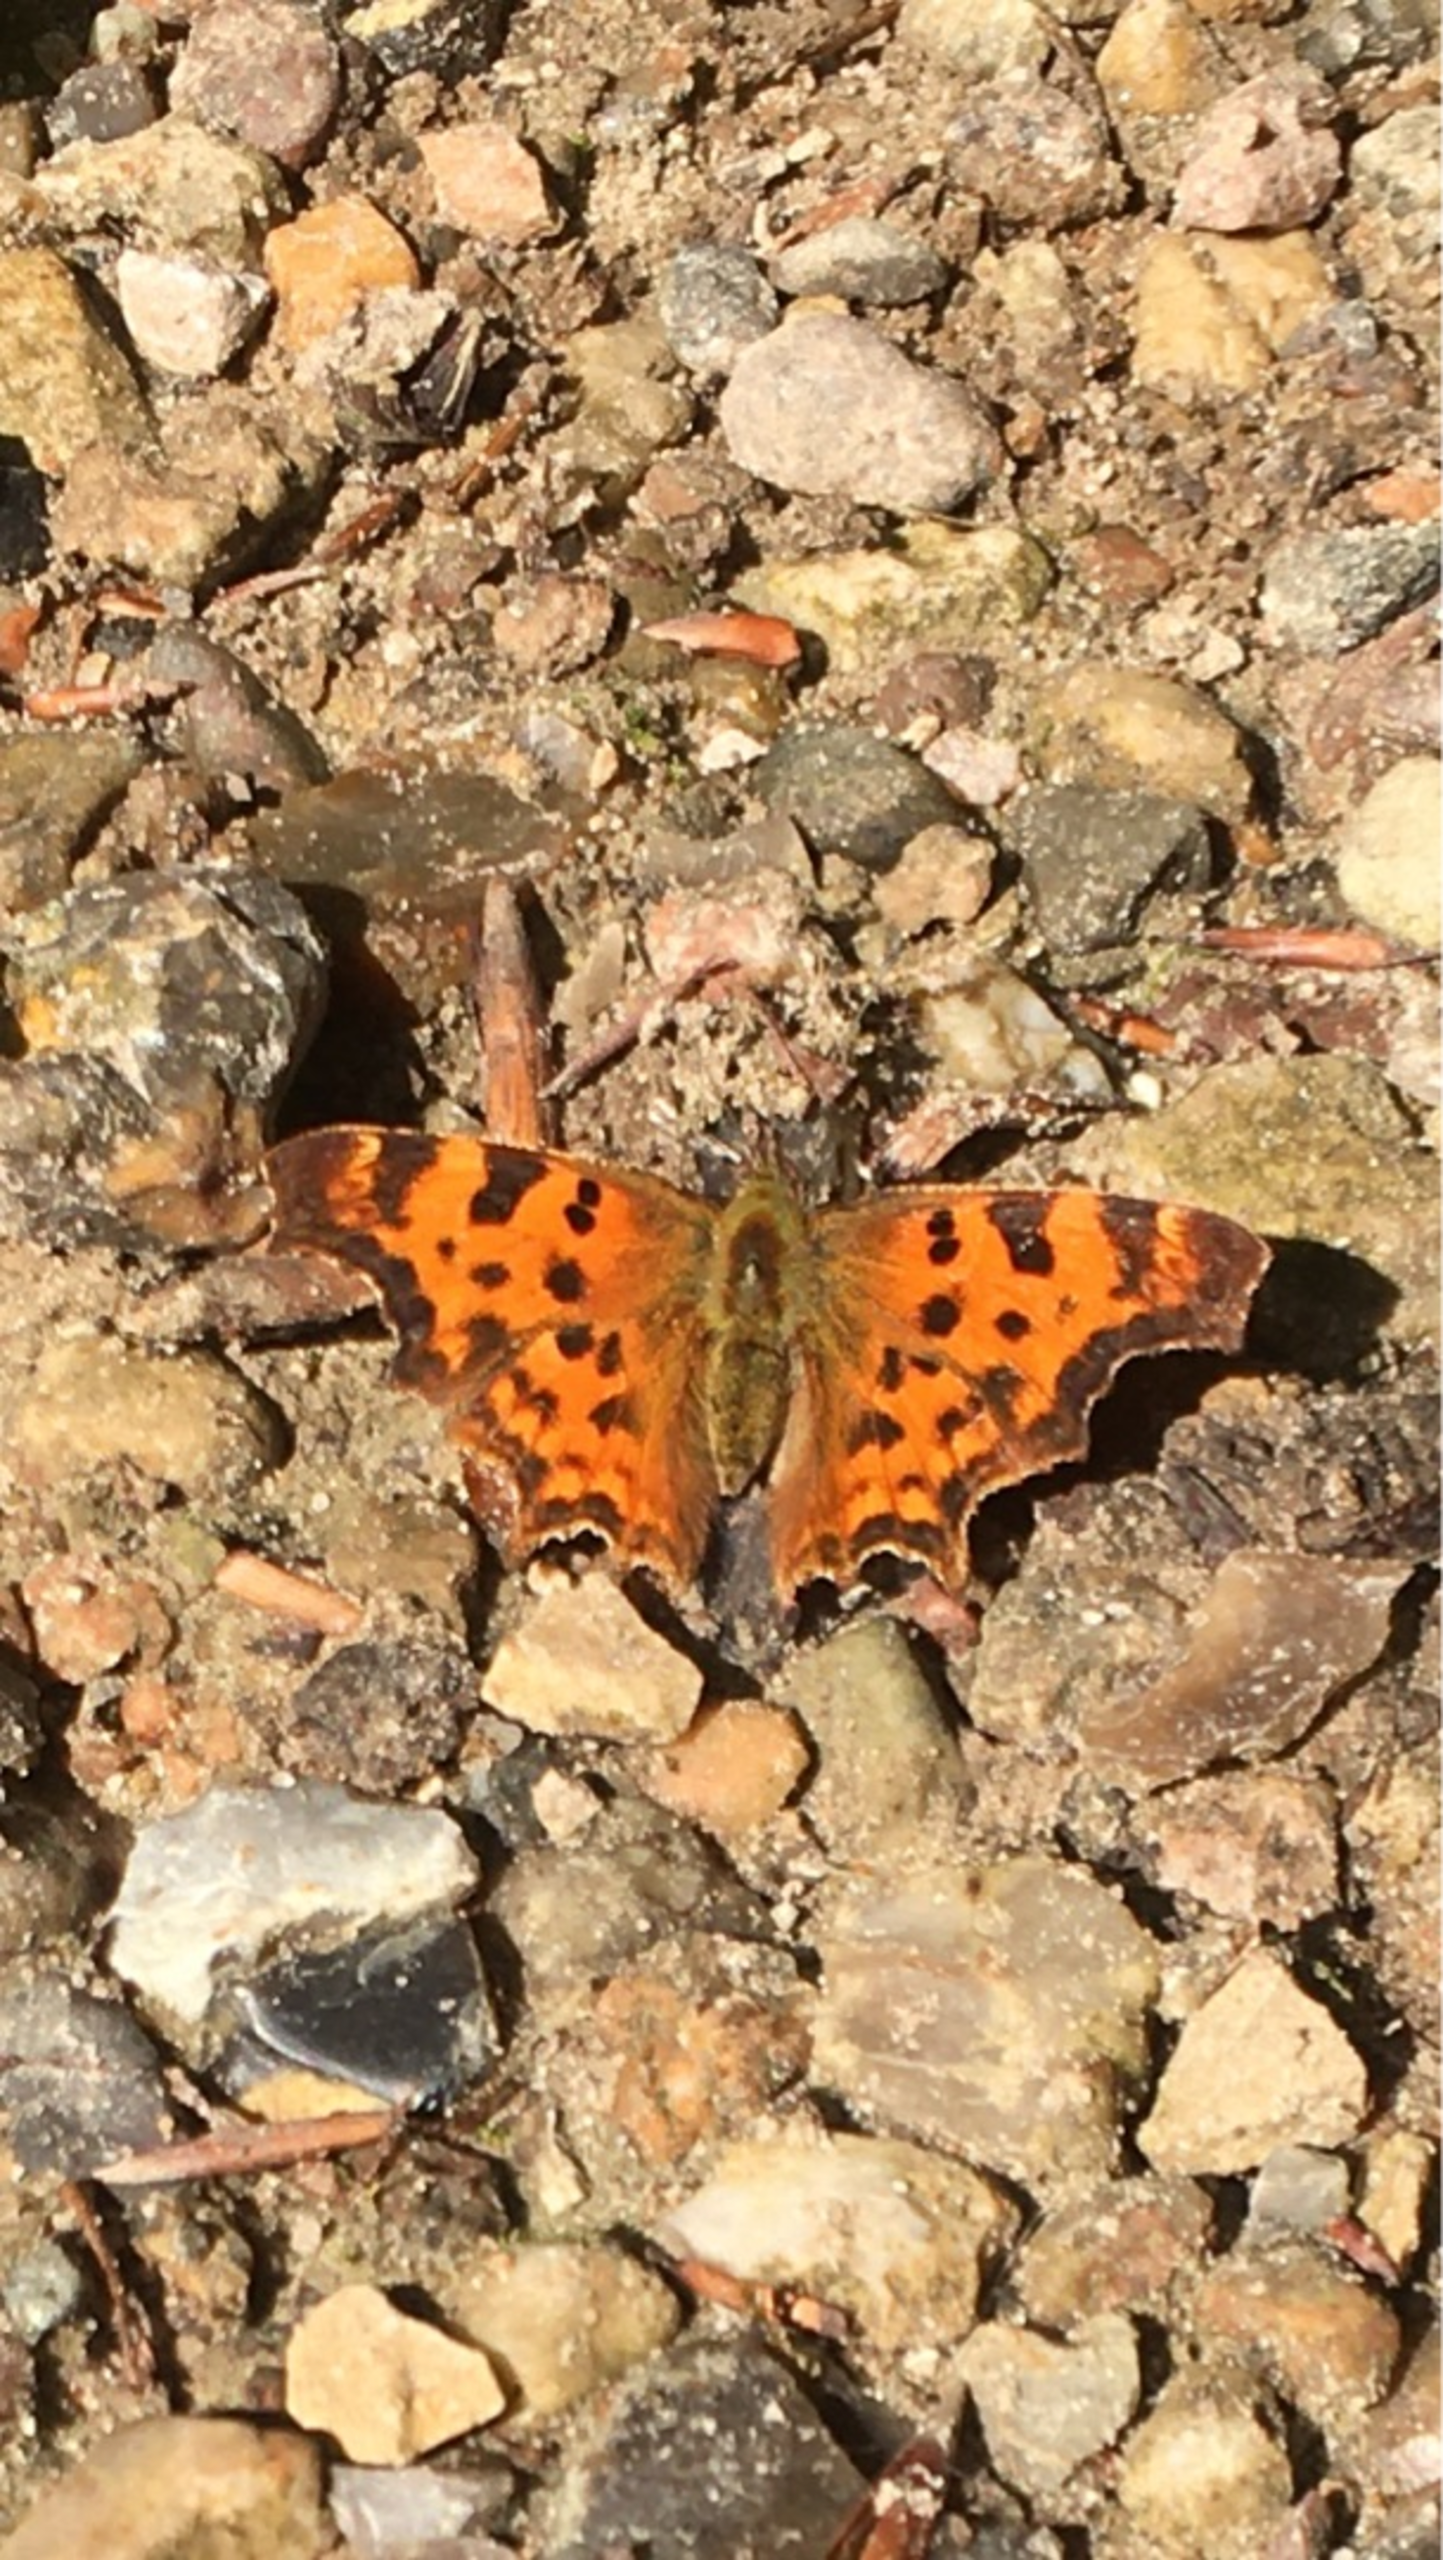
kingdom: Animalia
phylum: Arthropoda
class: Insecta
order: Lepidoptera
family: Nymphalidae
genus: Polygonia
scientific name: Polygonia c-album
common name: Det hvide C
